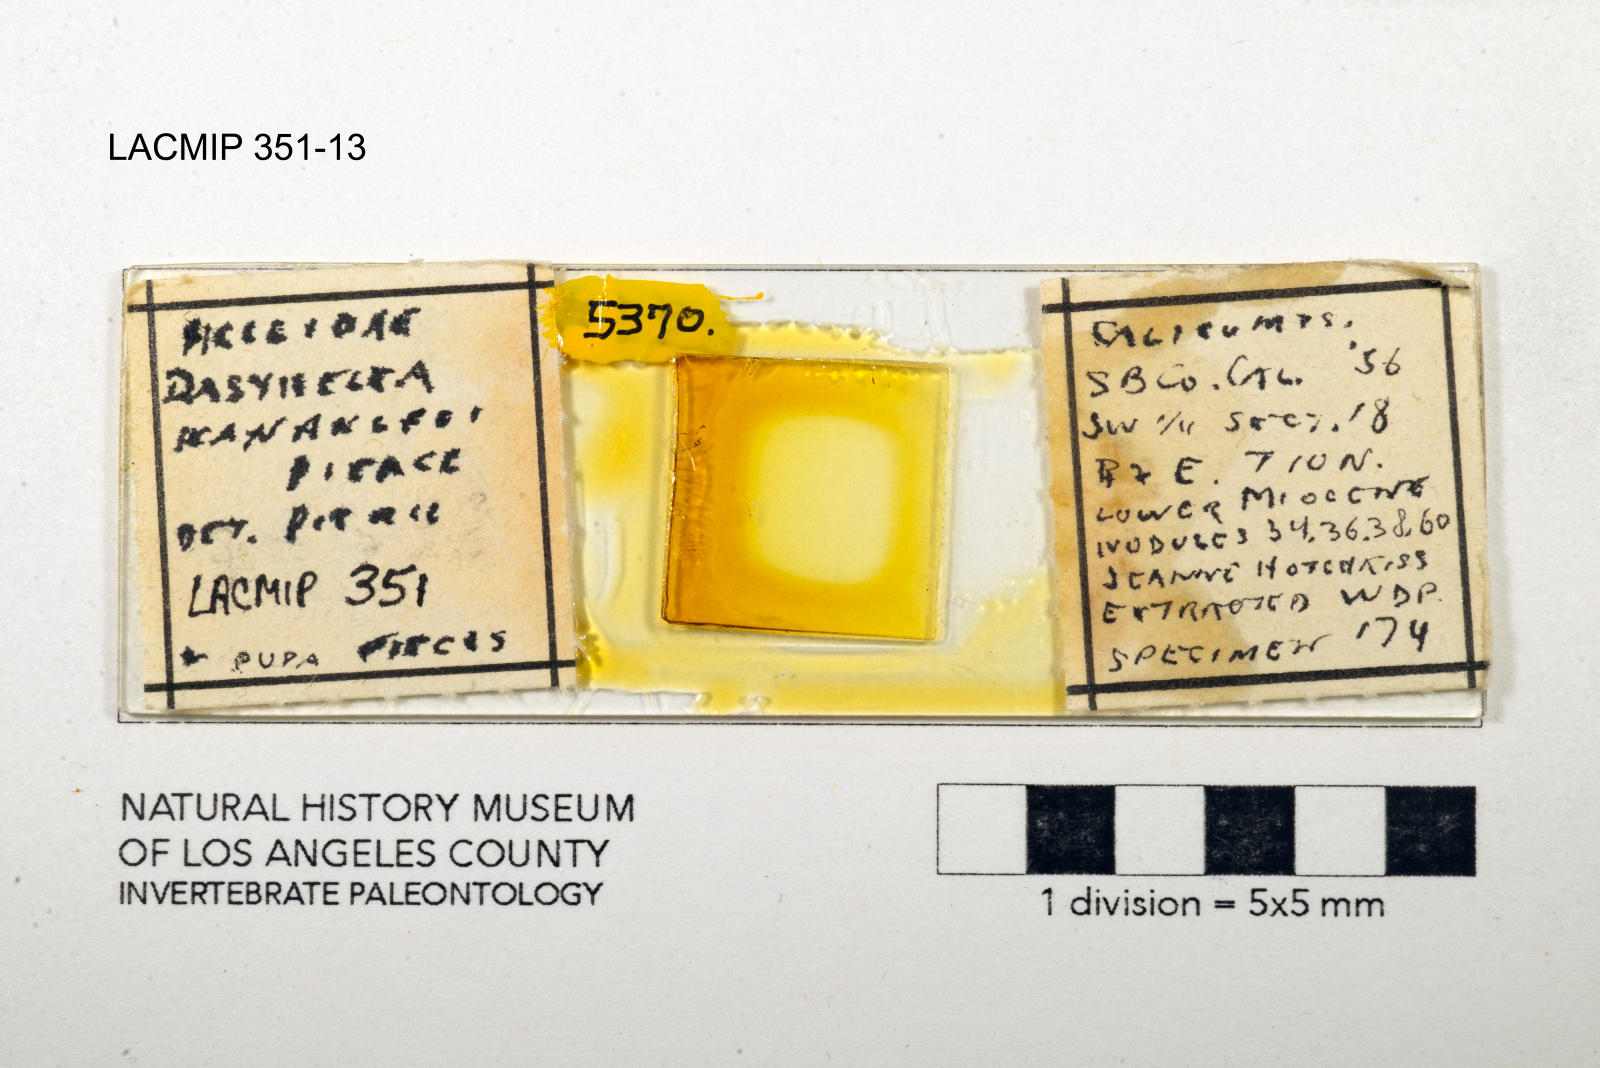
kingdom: Animalia
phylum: Arthropoda
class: Insecta
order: Diptera
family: Ceratopogonidae
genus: Dasyhelea
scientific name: Dasyhelea kanakoffi
